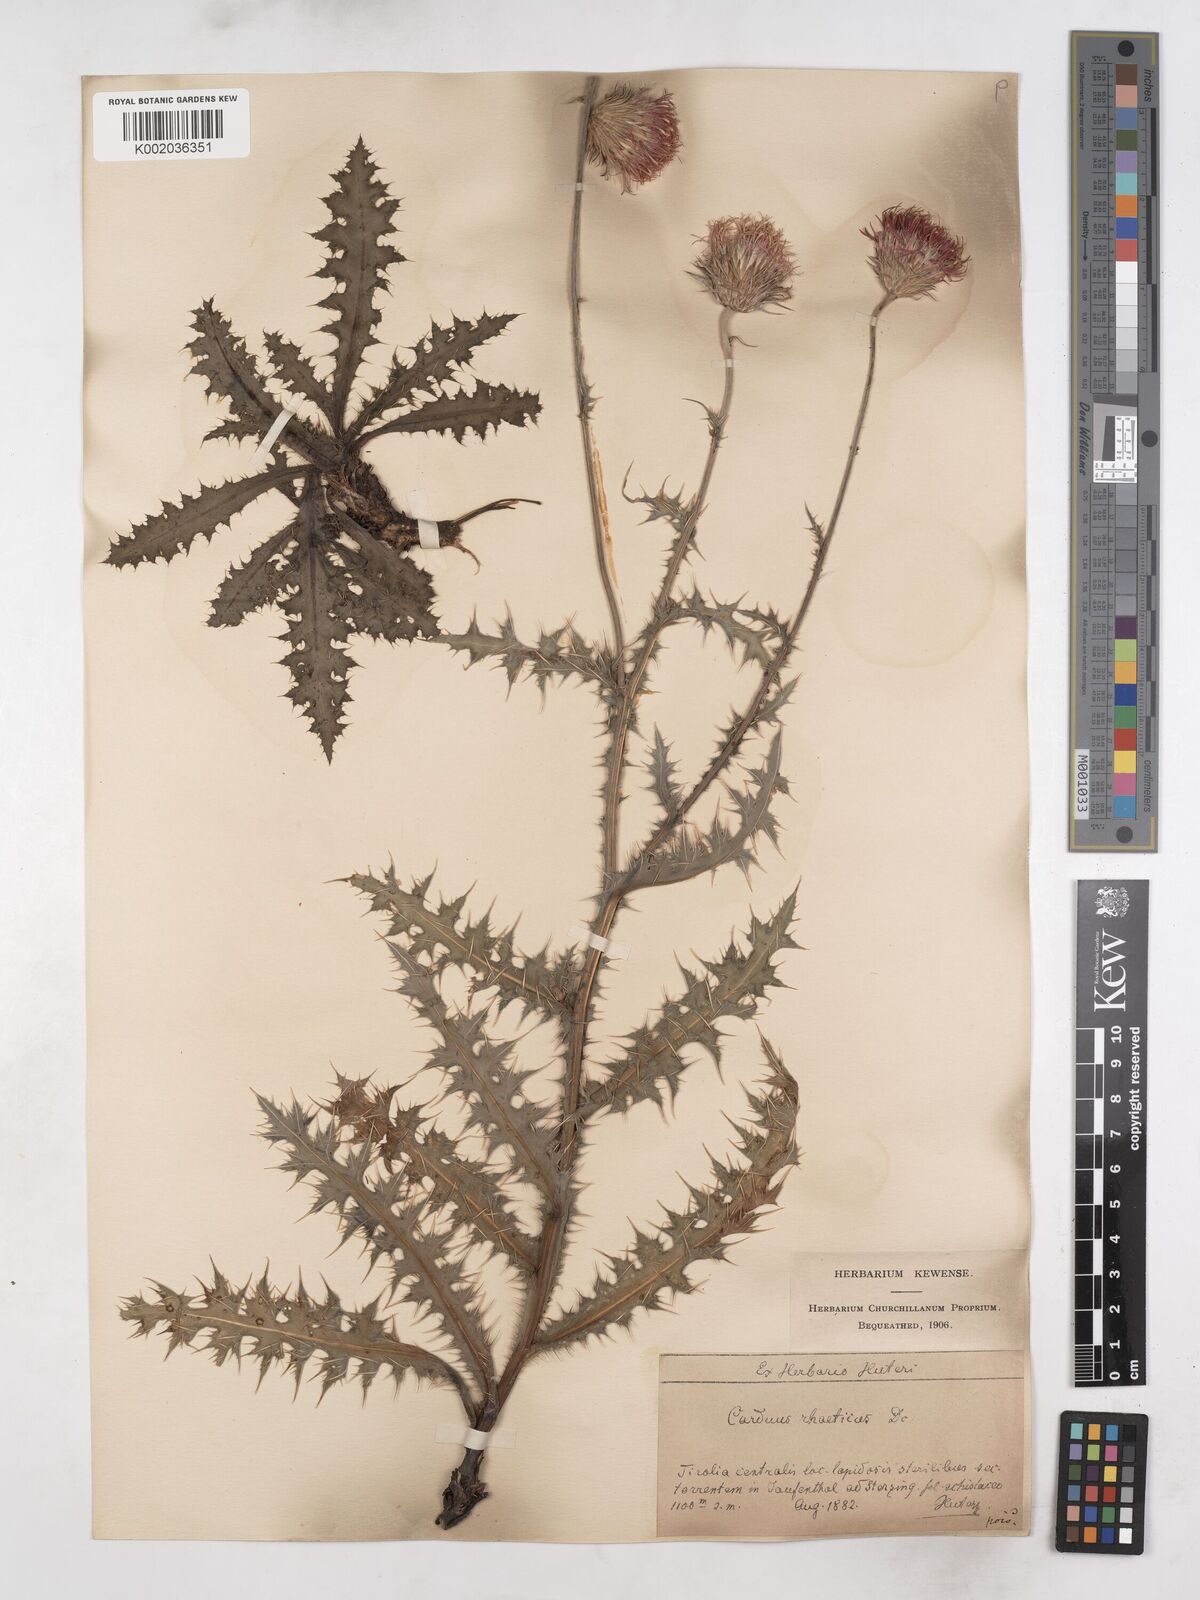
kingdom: Plantae
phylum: Tracheophyta
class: Magnoliopsida
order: Asterales
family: Asteraceae
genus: Carduus
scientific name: Carduus defloratus
